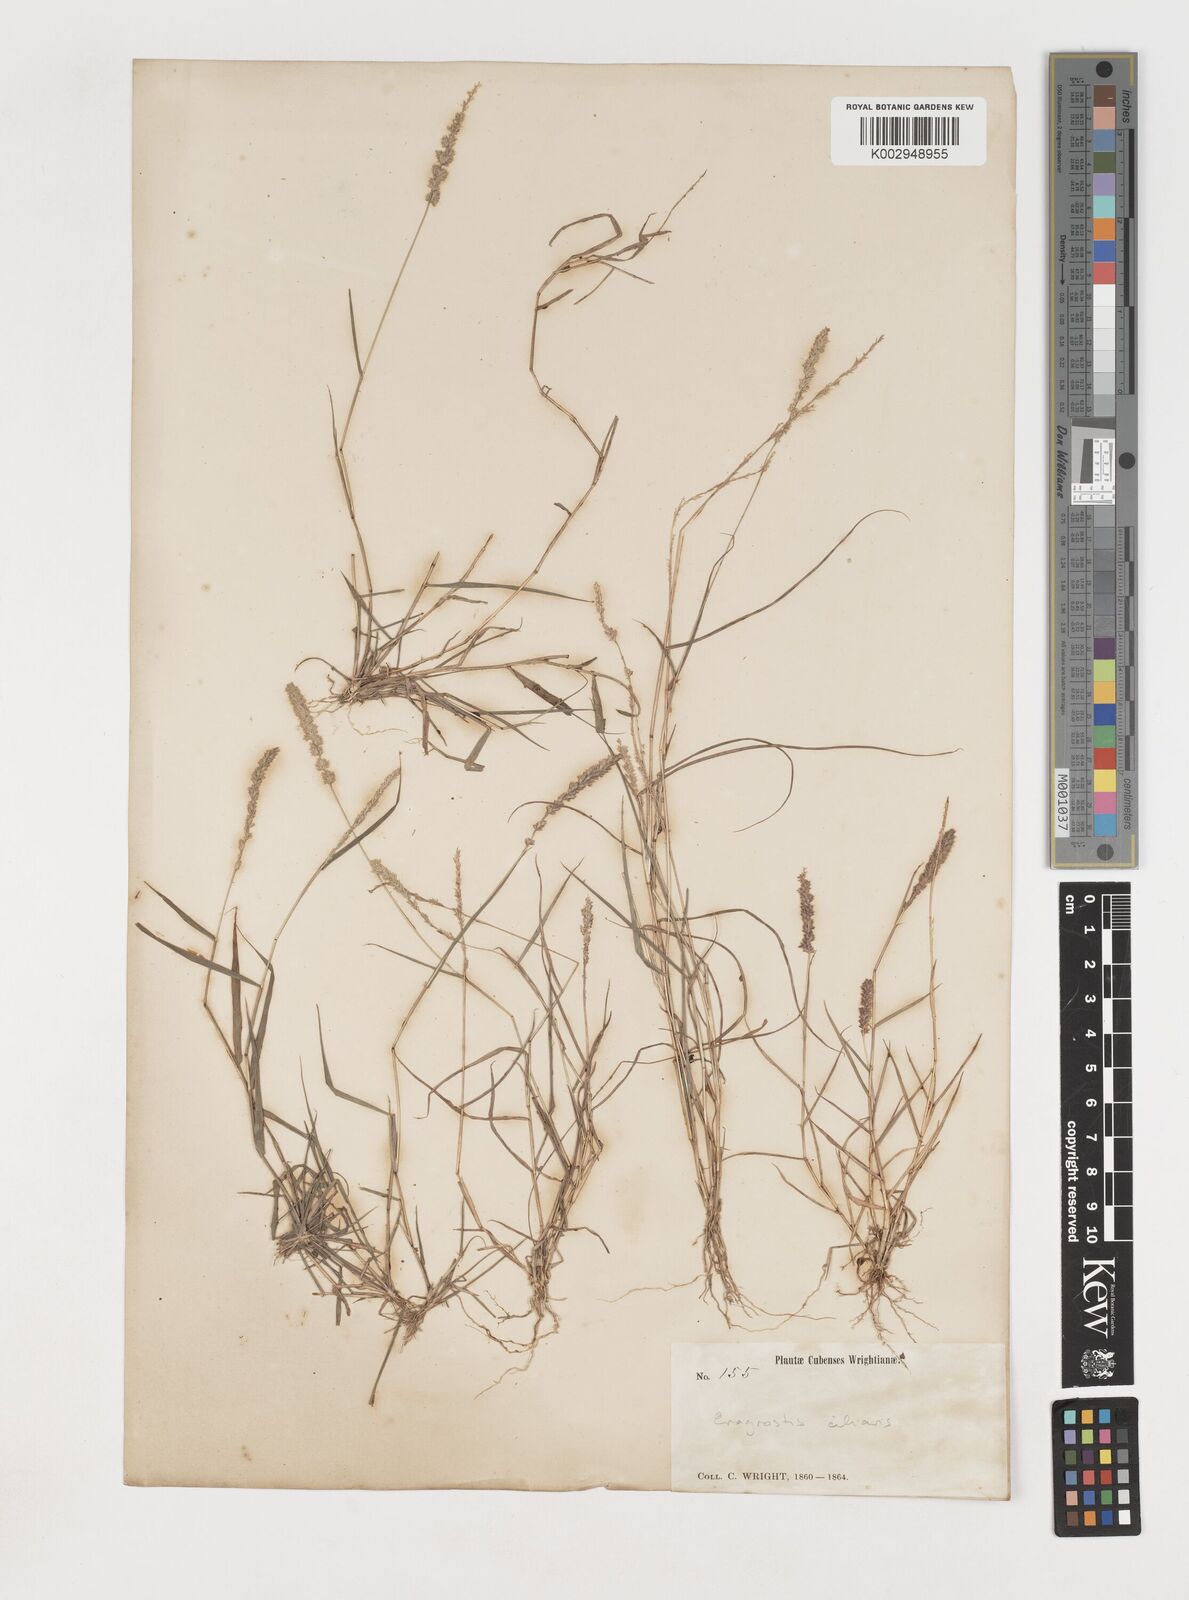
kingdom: Plantae
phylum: Tracheophyta
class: Liliopsida
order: Poales
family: Poaceae
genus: Eragrostis
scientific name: Eragrostis ciliaris
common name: Gophertail lovegrass
